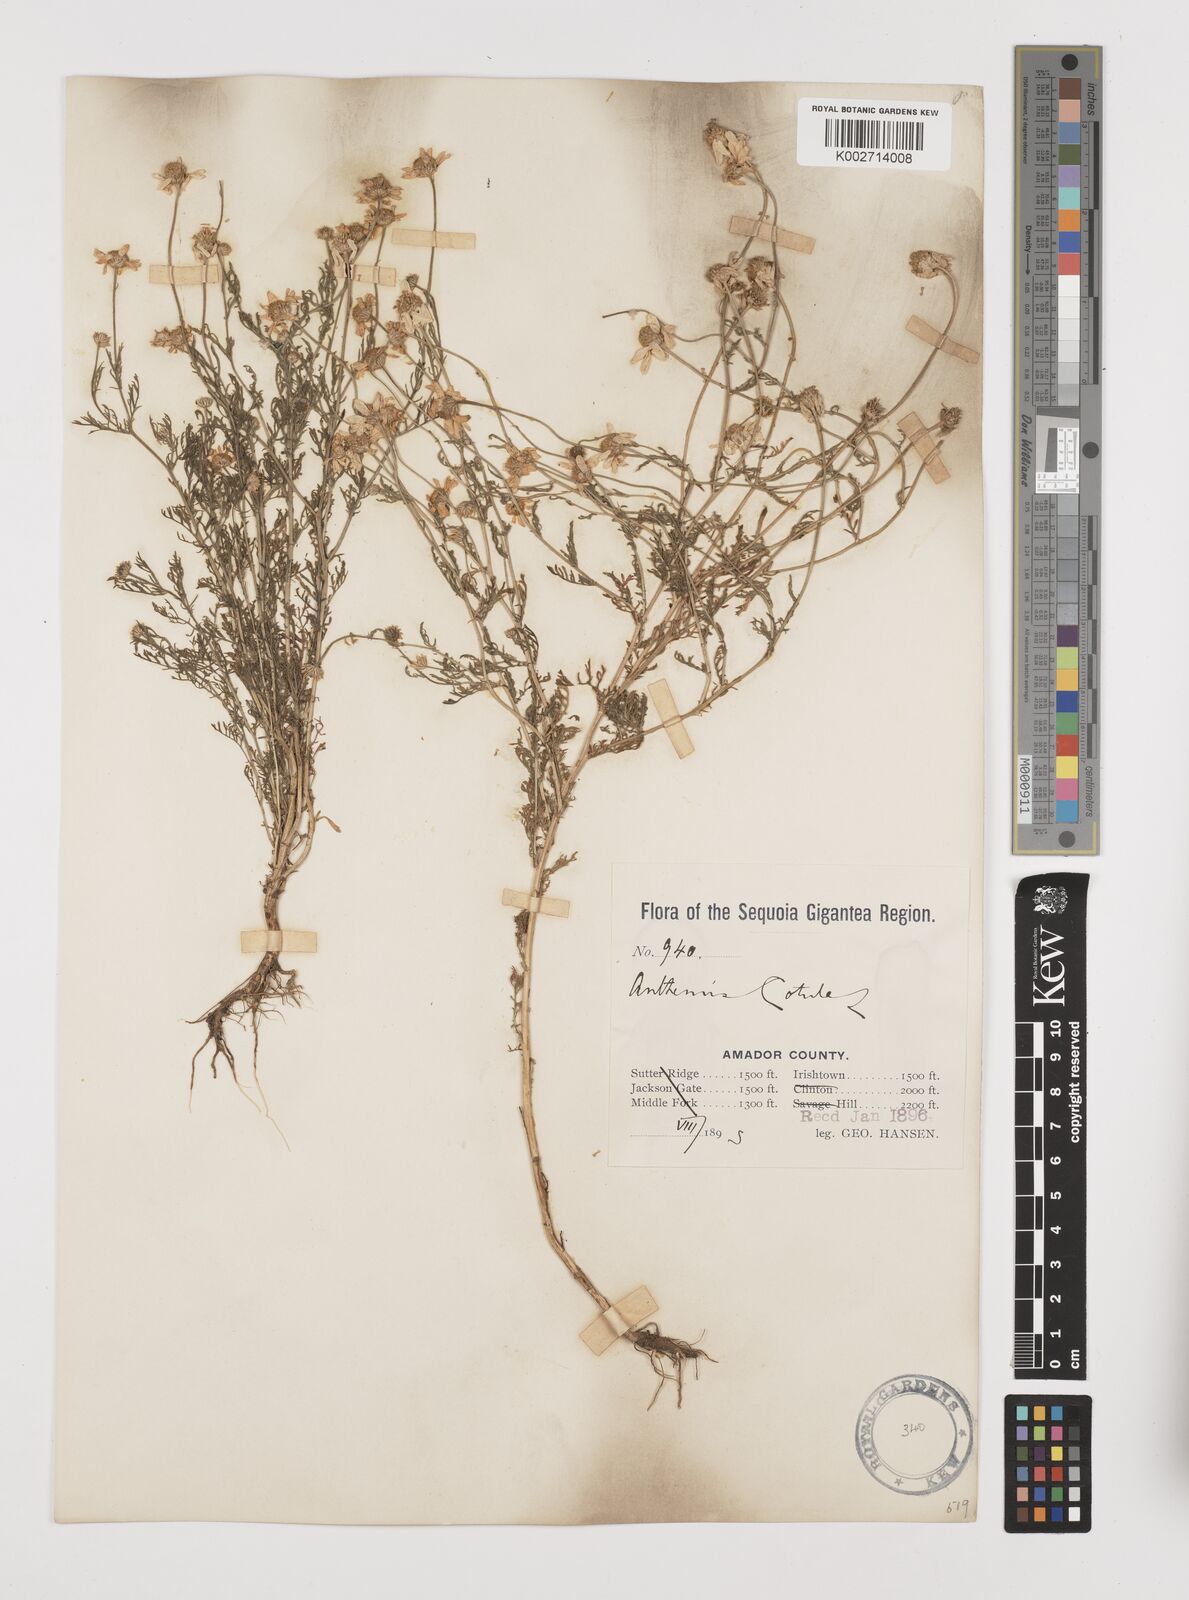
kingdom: Plantae
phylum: Tracheophyta
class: Magnoliopsida
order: Asterales
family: Asteraceae
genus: Anthemis
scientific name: Anthemis cotula
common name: Stinking chamomile
